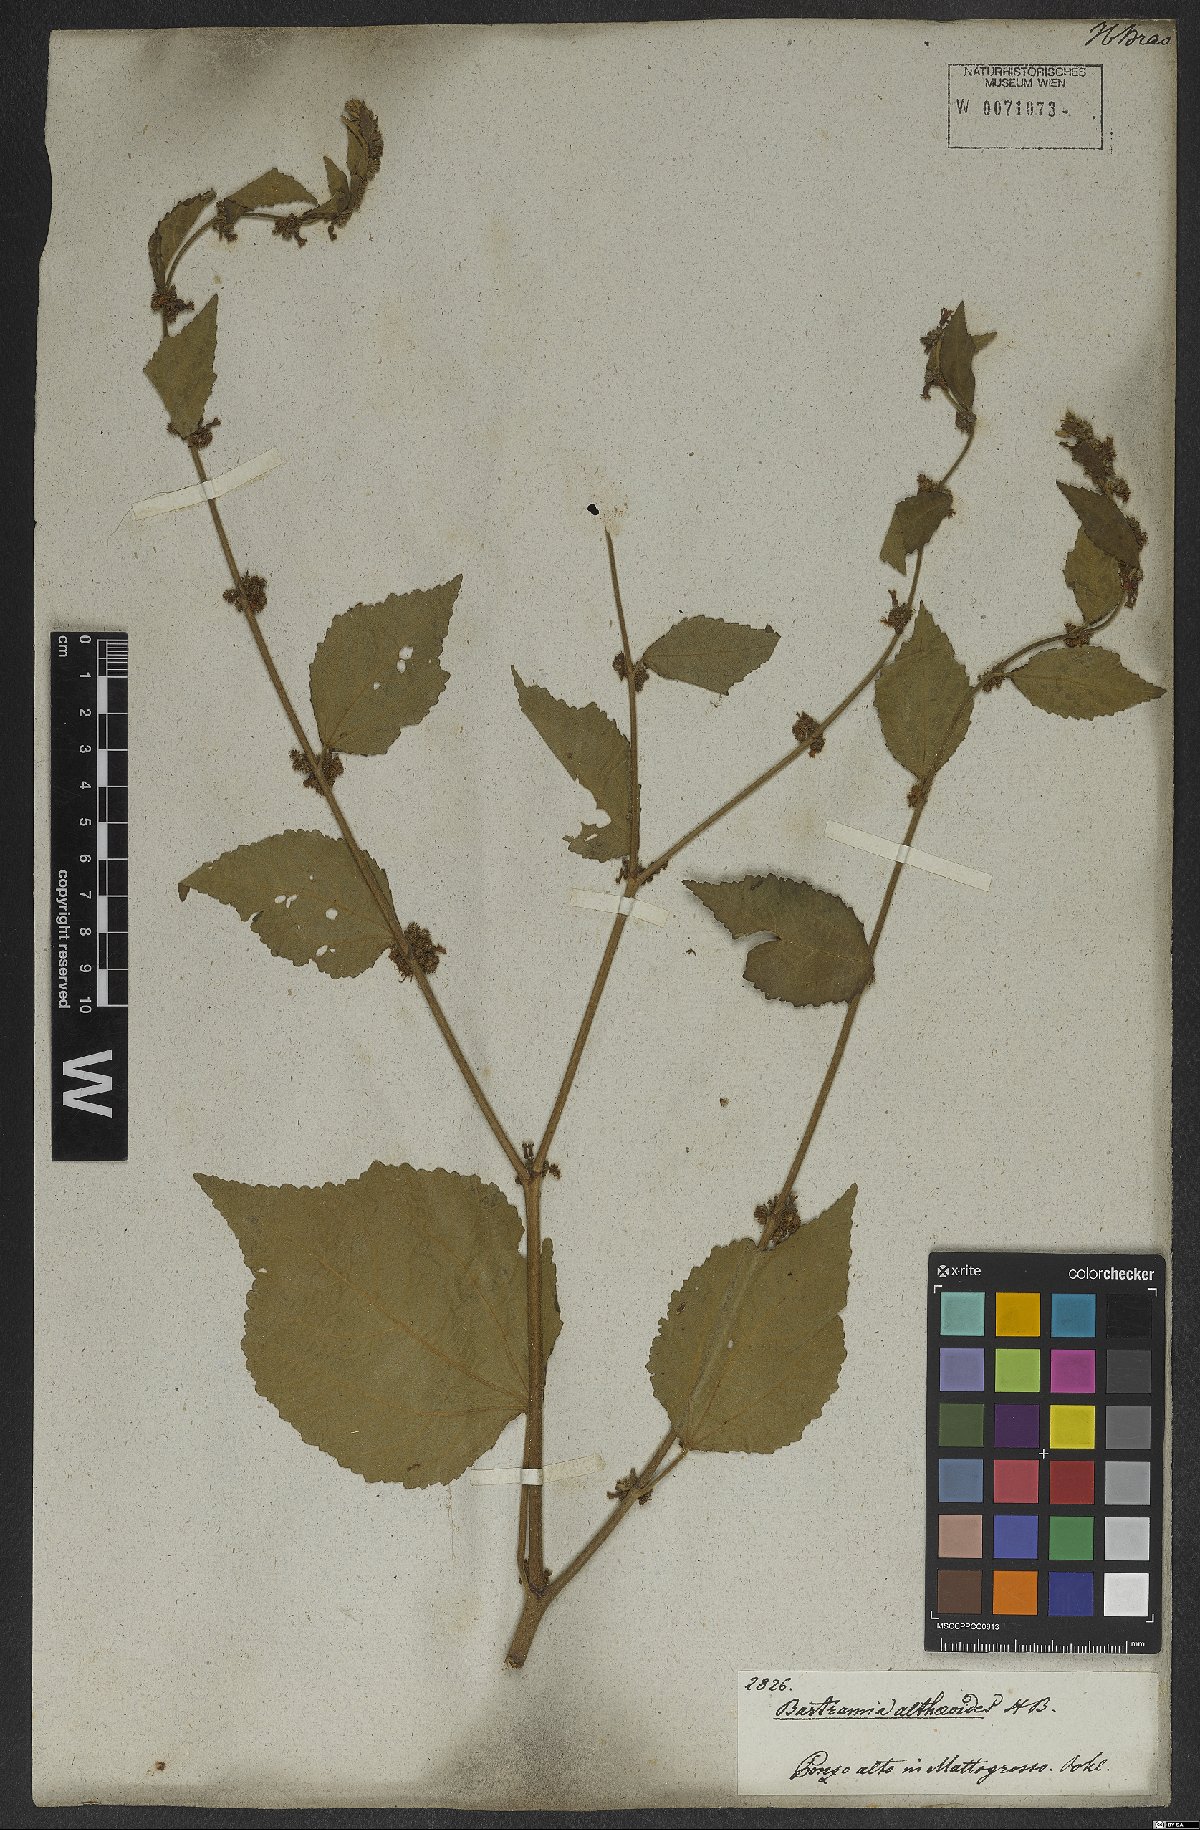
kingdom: Plantae
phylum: Tracheophyta
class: Magnoliopsida
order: Malvales
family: Malvaceae
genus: Triumfetta
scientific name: Triumfetta althaeoides
